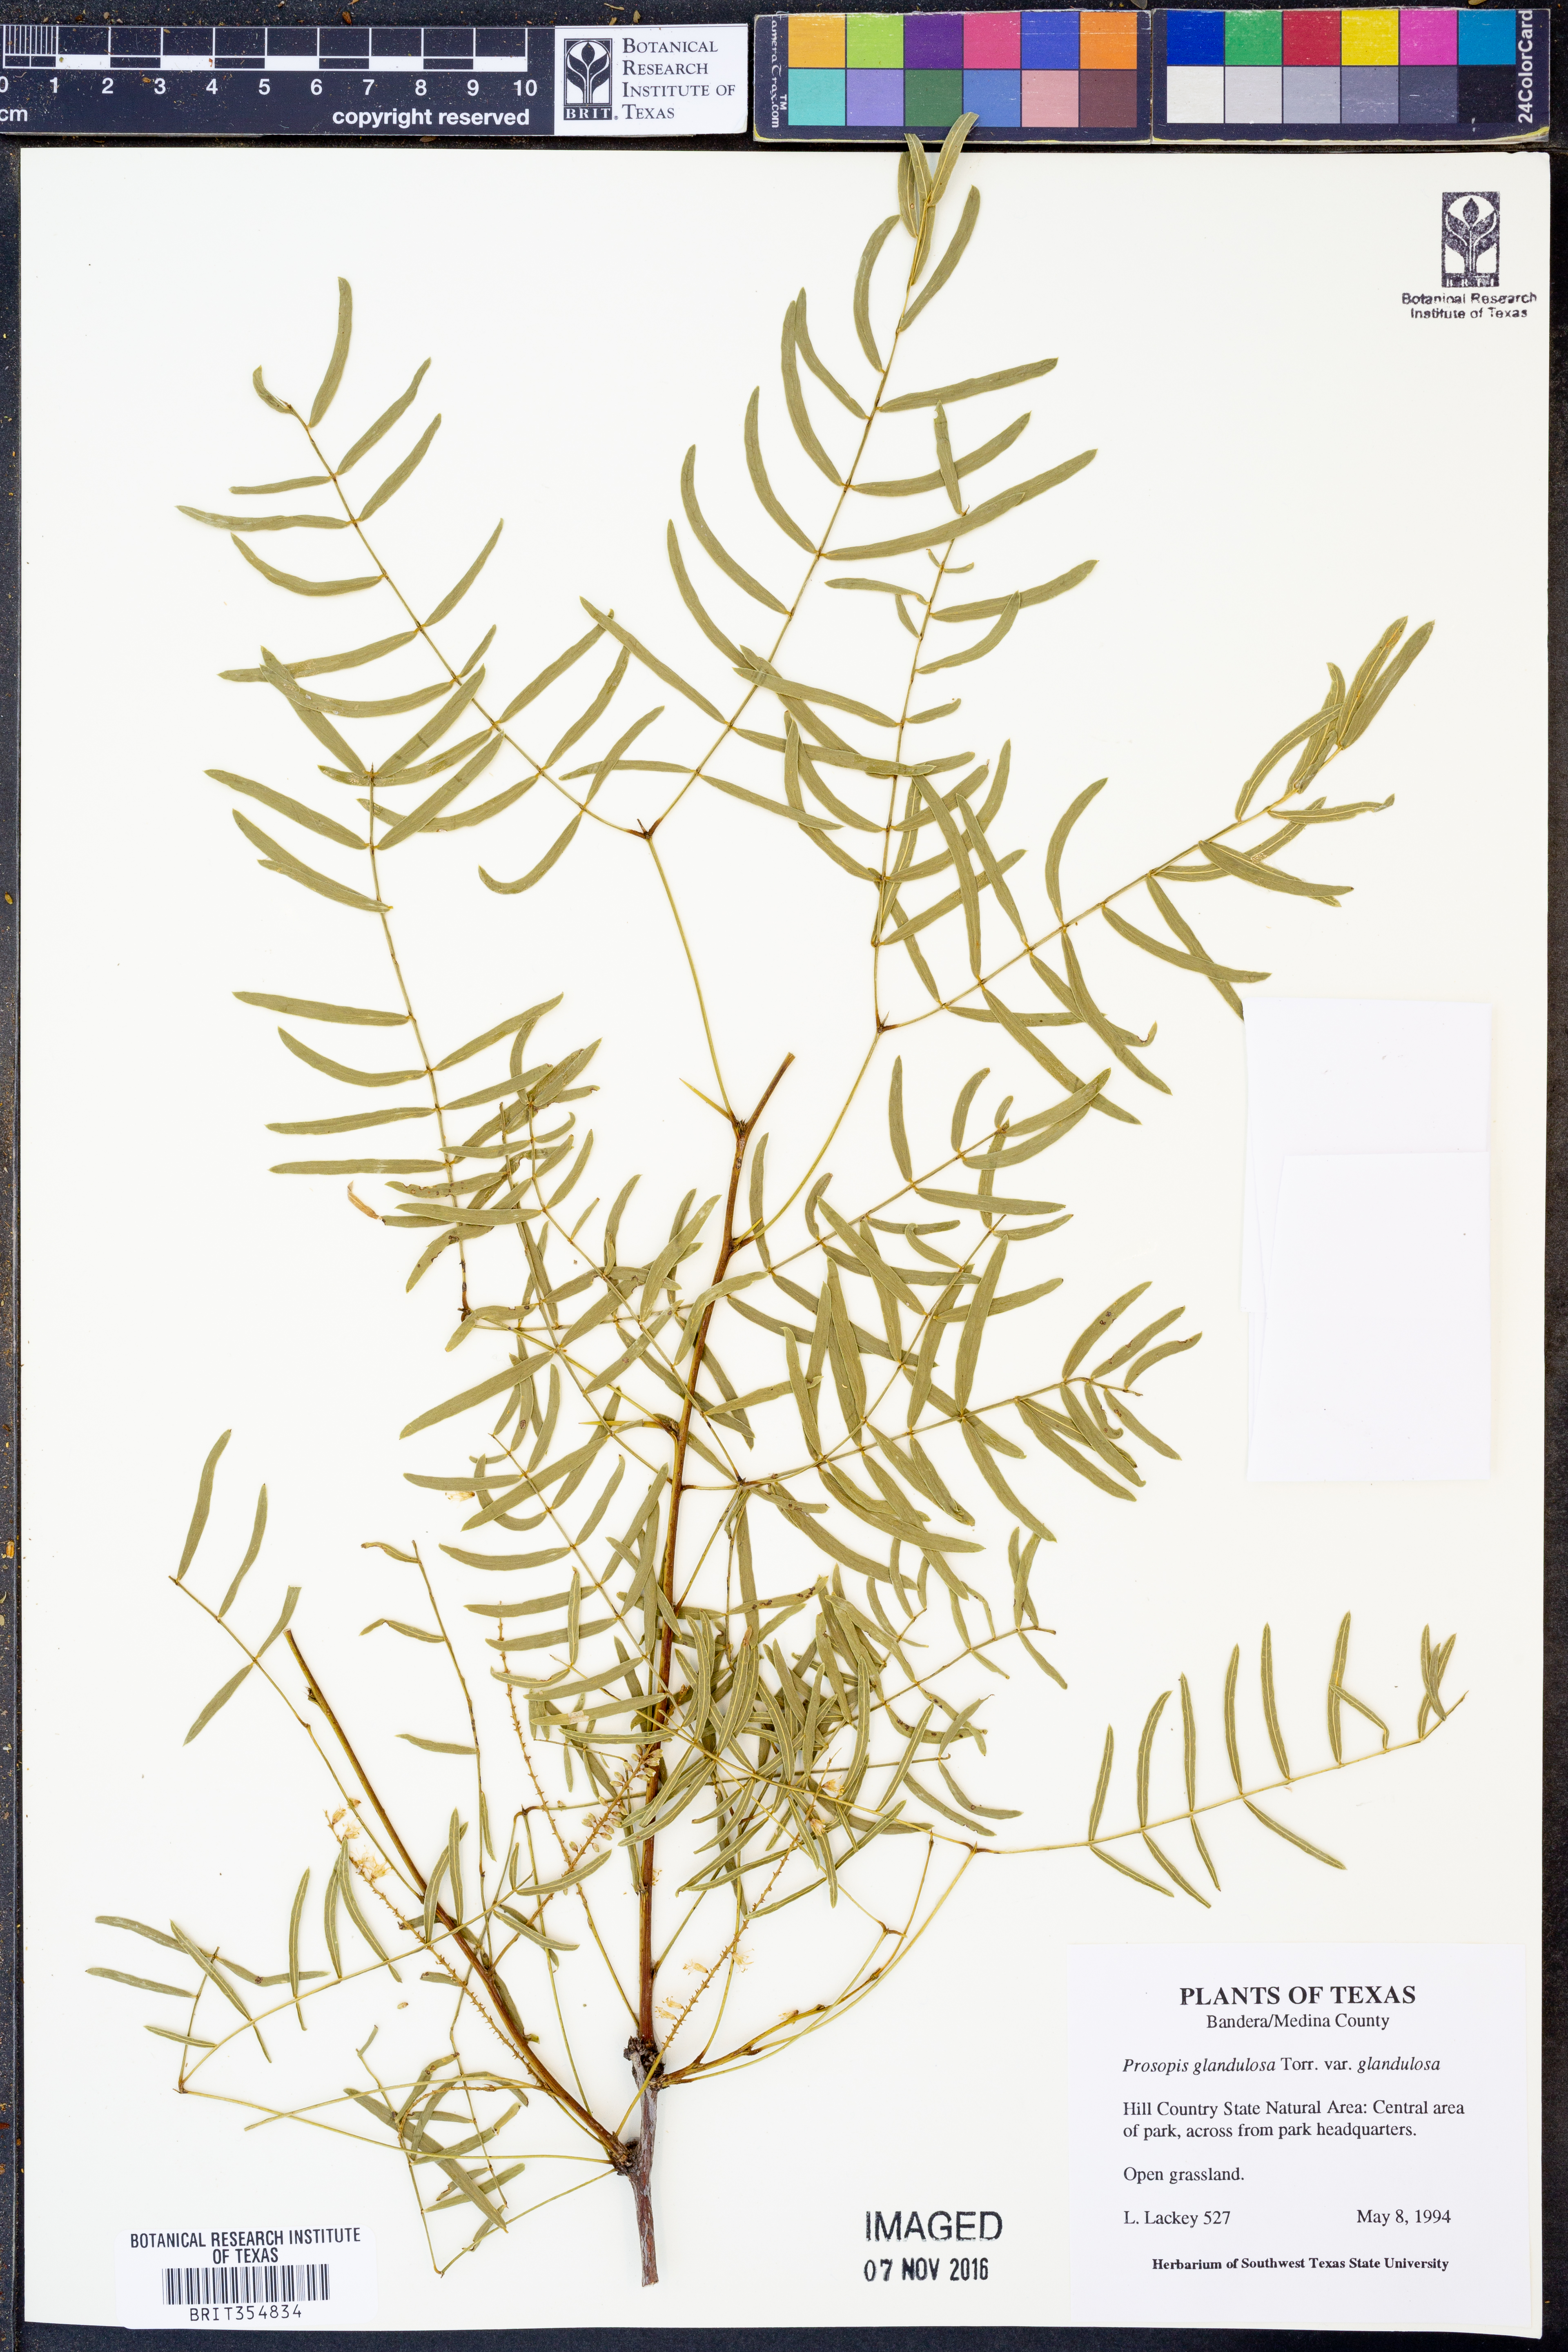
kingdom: Plantae
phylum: Tracheophyta
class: Magnoliopsida
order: Fabales
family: Fabaceae
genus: Prosopis
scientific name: Prosopis glandulosa
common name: Honey mesquite
